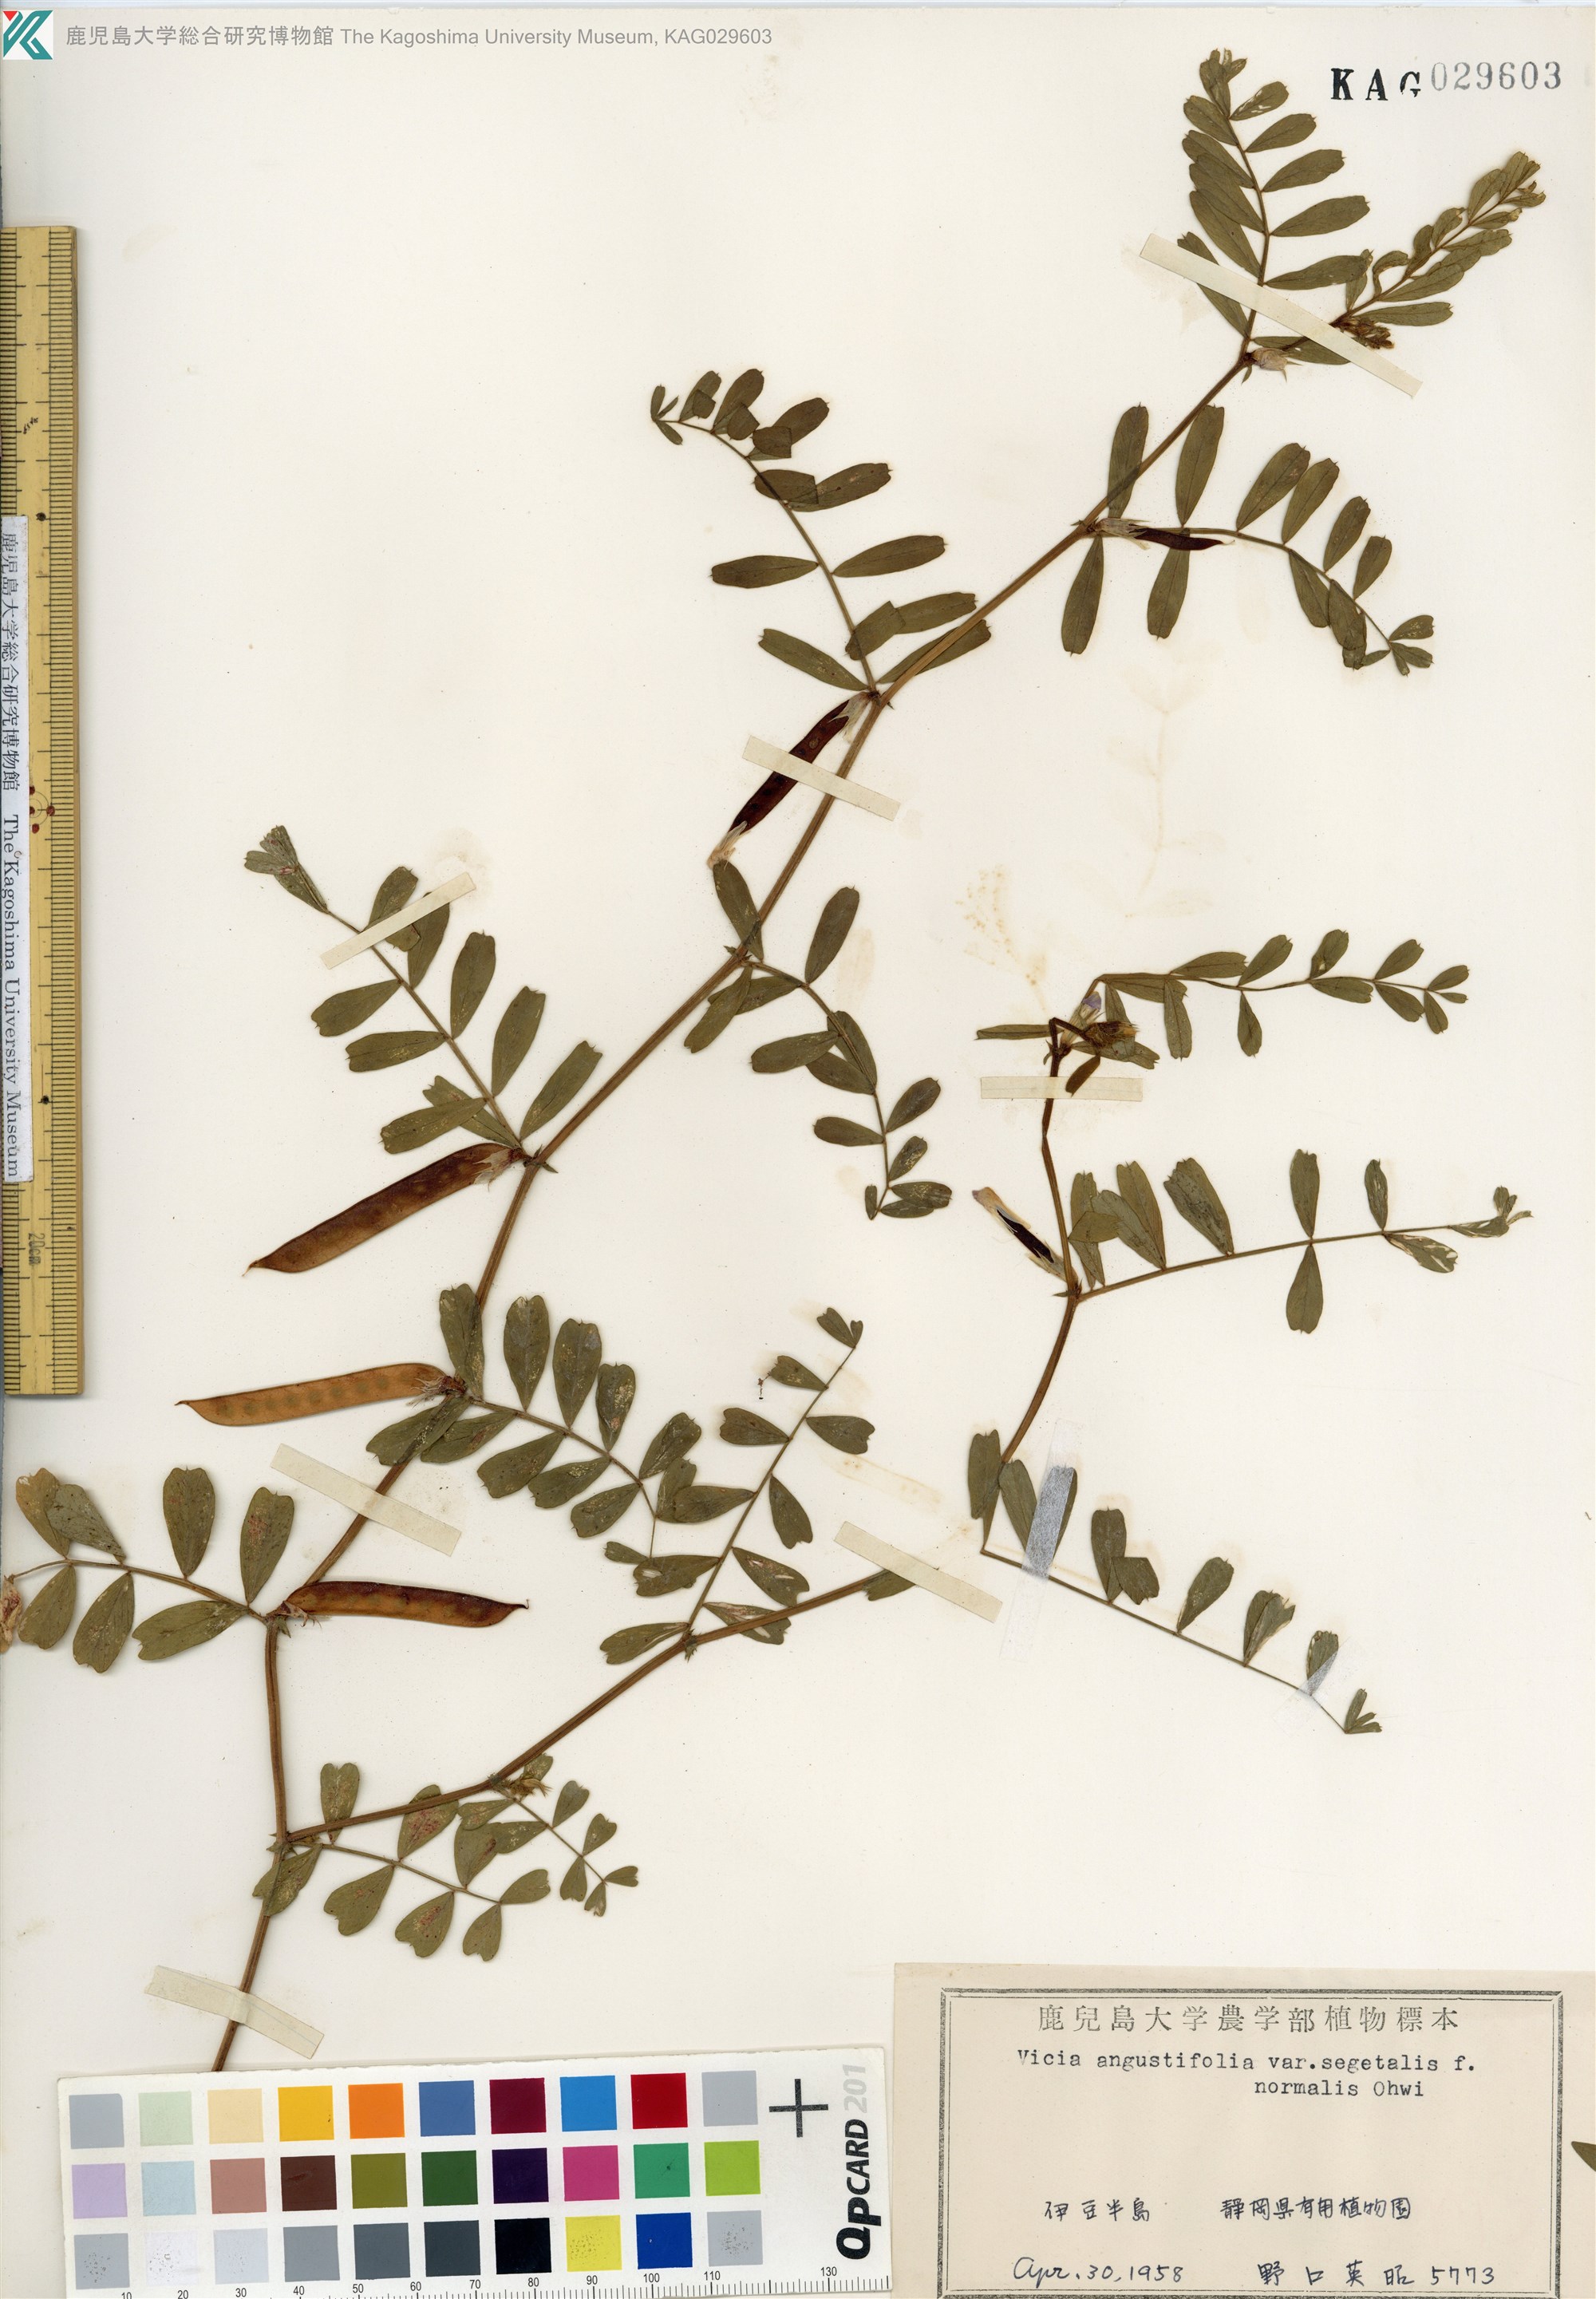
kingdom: Plantae
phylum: Tracheophyta
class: Magnoliopsida
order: Fabales
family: Fabaceae
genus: Vicia
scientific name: Vicia sativa
